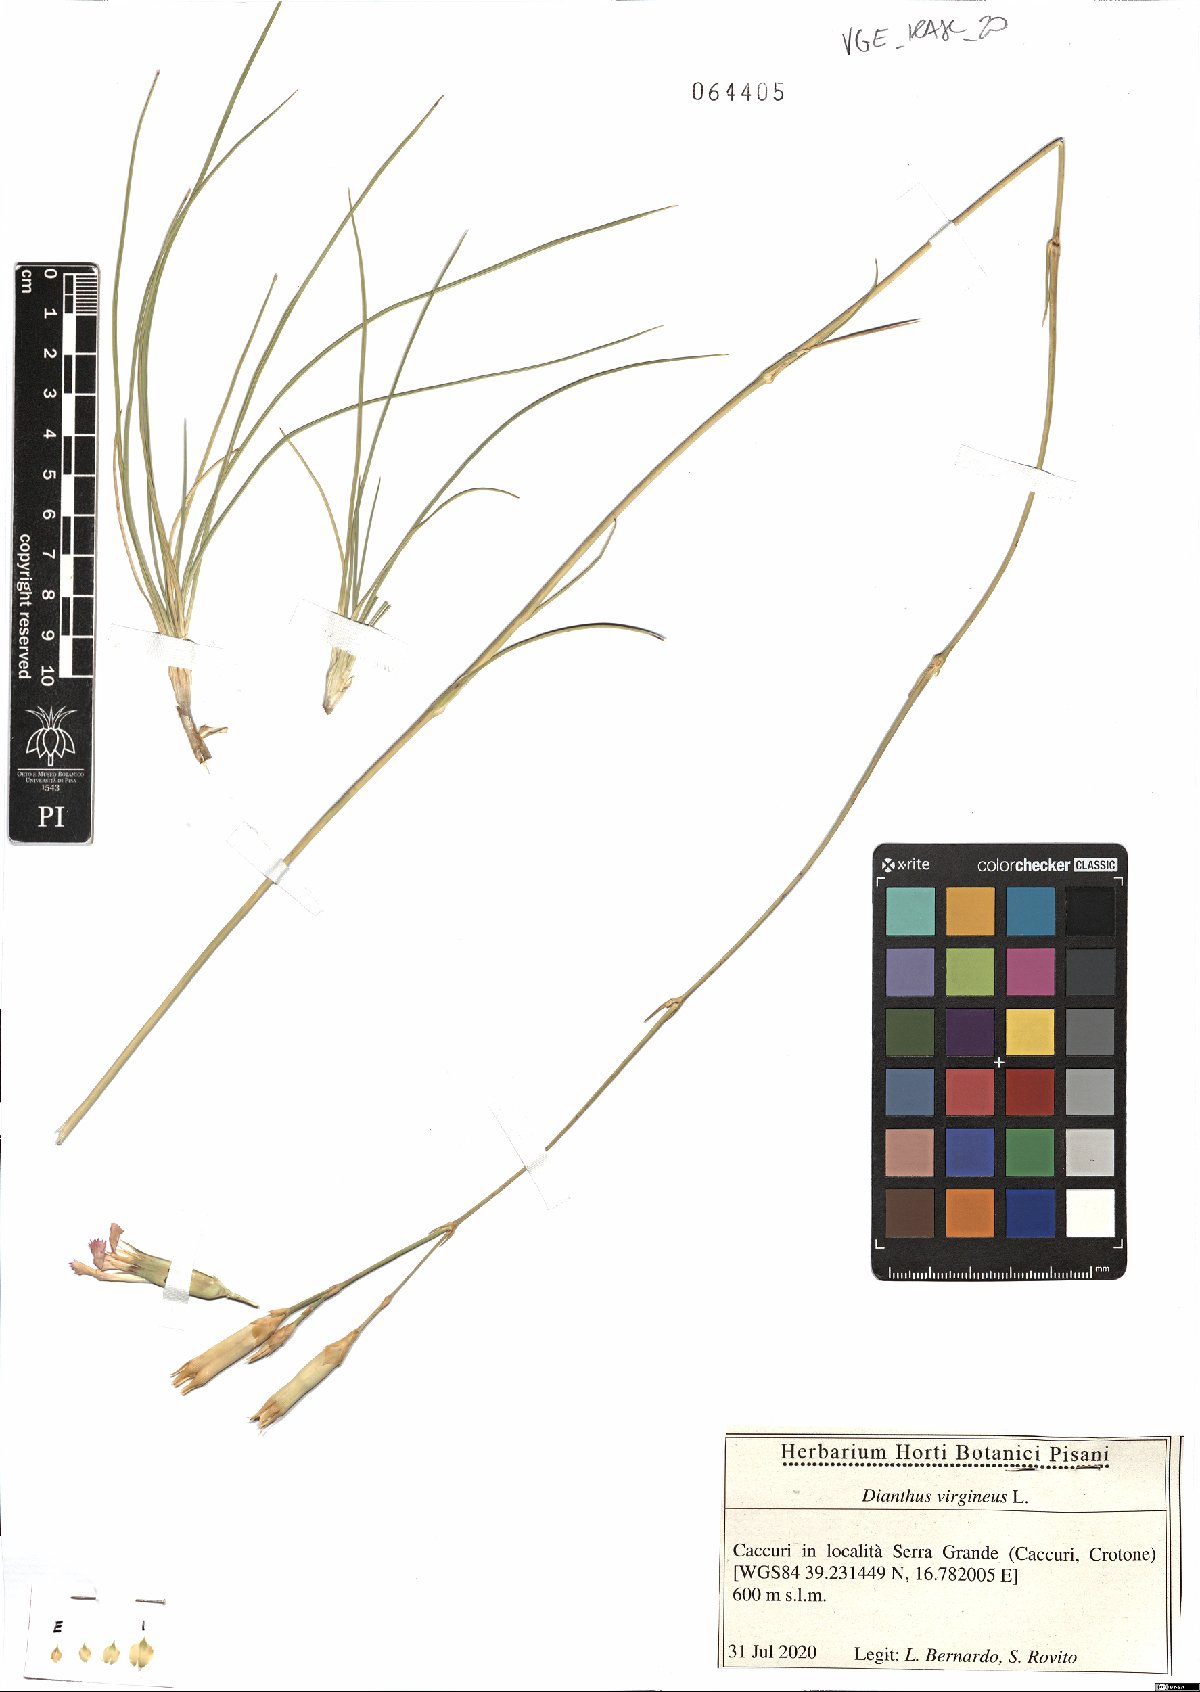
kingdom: Plantae
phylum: Tracheophyta
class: Magnoliopsida
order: Caryophyllales
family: Caryophyllaceae
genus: Dianthus
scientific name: Dianthus virgineus
